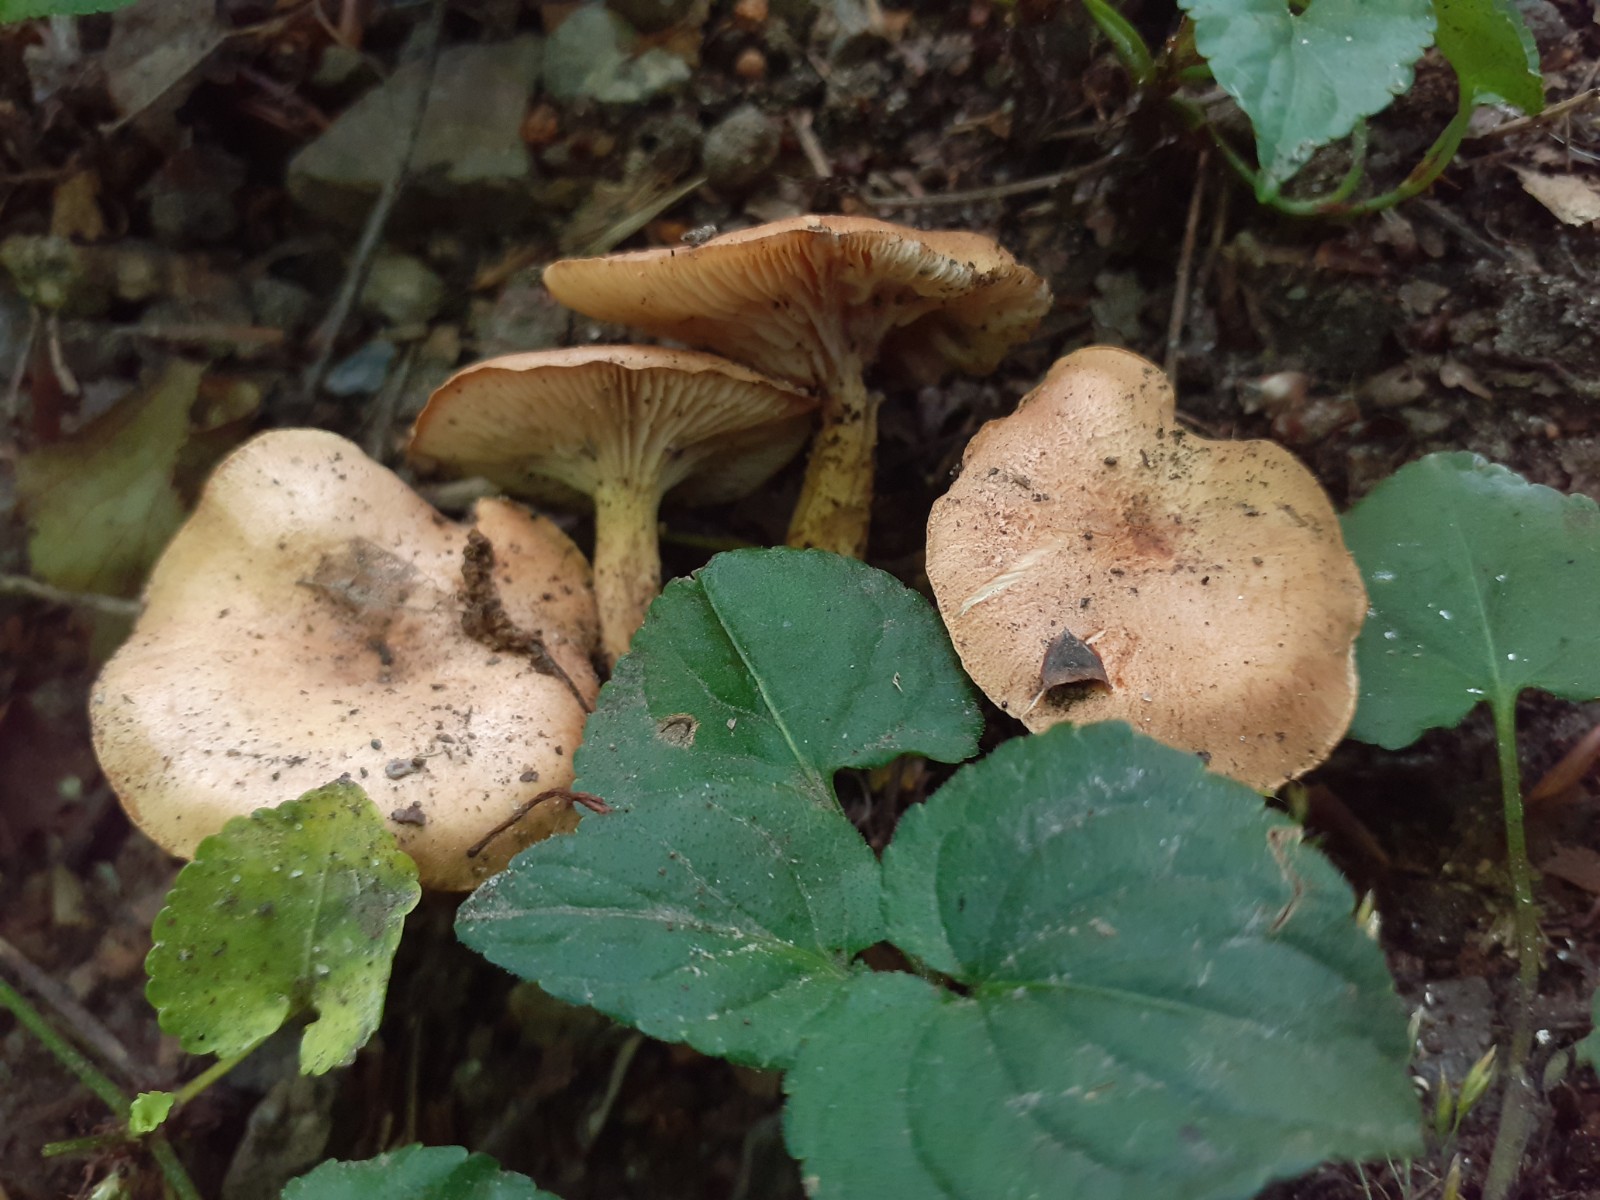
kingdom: Fungi
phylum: Basidiomycota
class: Agaricomycetes
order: Agaricales
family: Tricholomataceae
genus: Infundibulicybe
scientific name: Infundibulicybe
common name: tragthat
